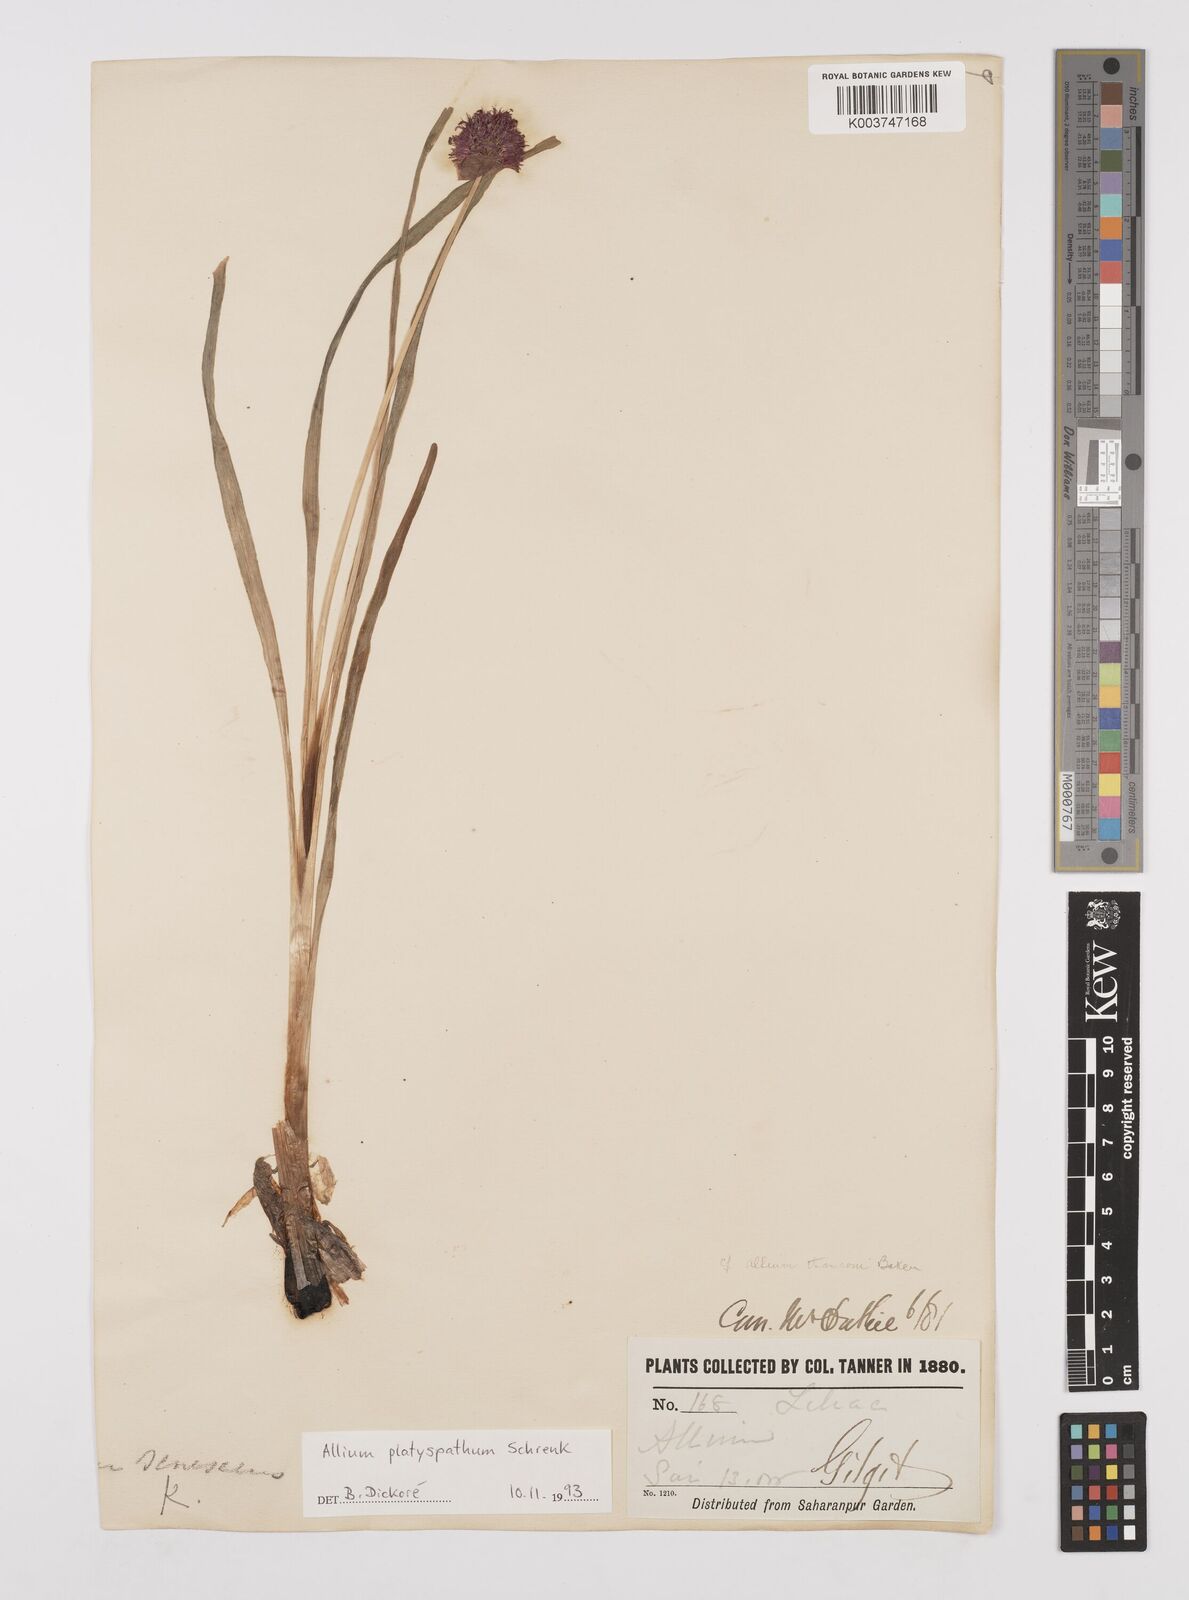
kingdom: Plantae
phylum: Tracheophyta
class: Liliopsida
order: Asparagales
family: Amaryllidaceae
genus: Allium
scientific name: Allium platyspathum
